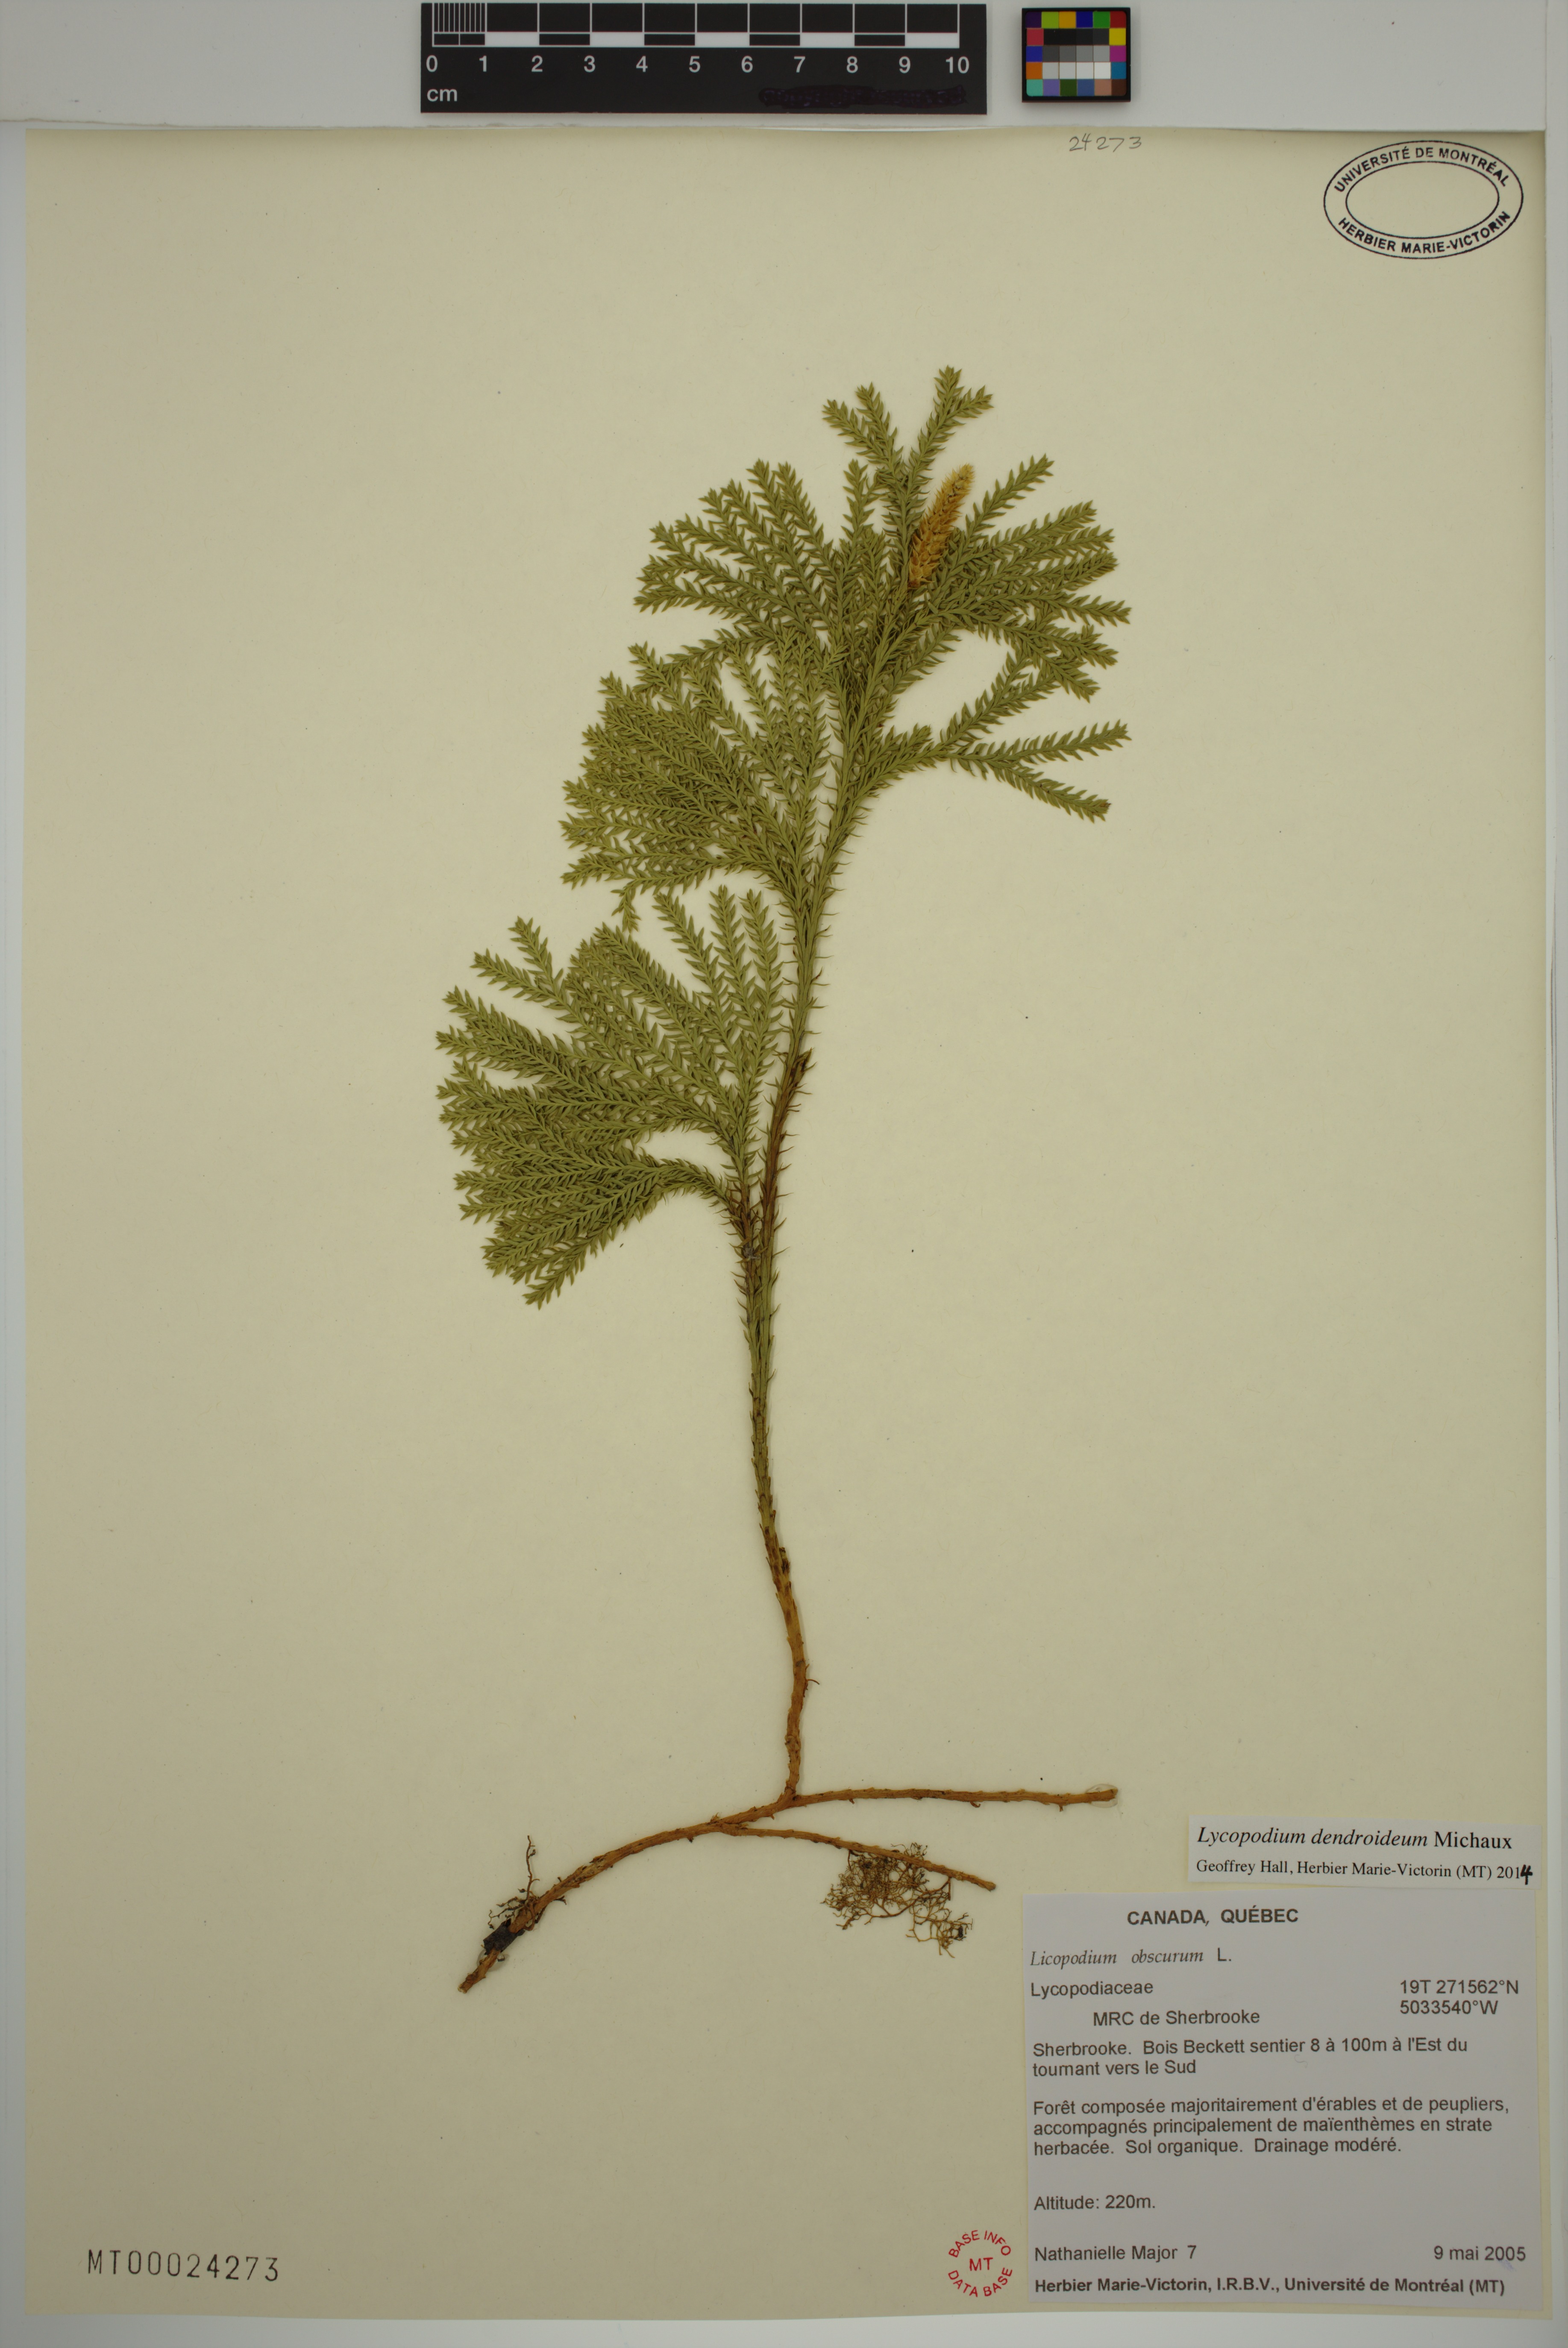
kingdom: Plantae
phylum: Tracheophyta
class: Lycopodiopsida
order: Lycopodiales
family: Lycopodiaceae
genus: Dendrolycopodium
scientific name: Dendrolycopodium dendroideum
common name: Northern tree-clubmoss
